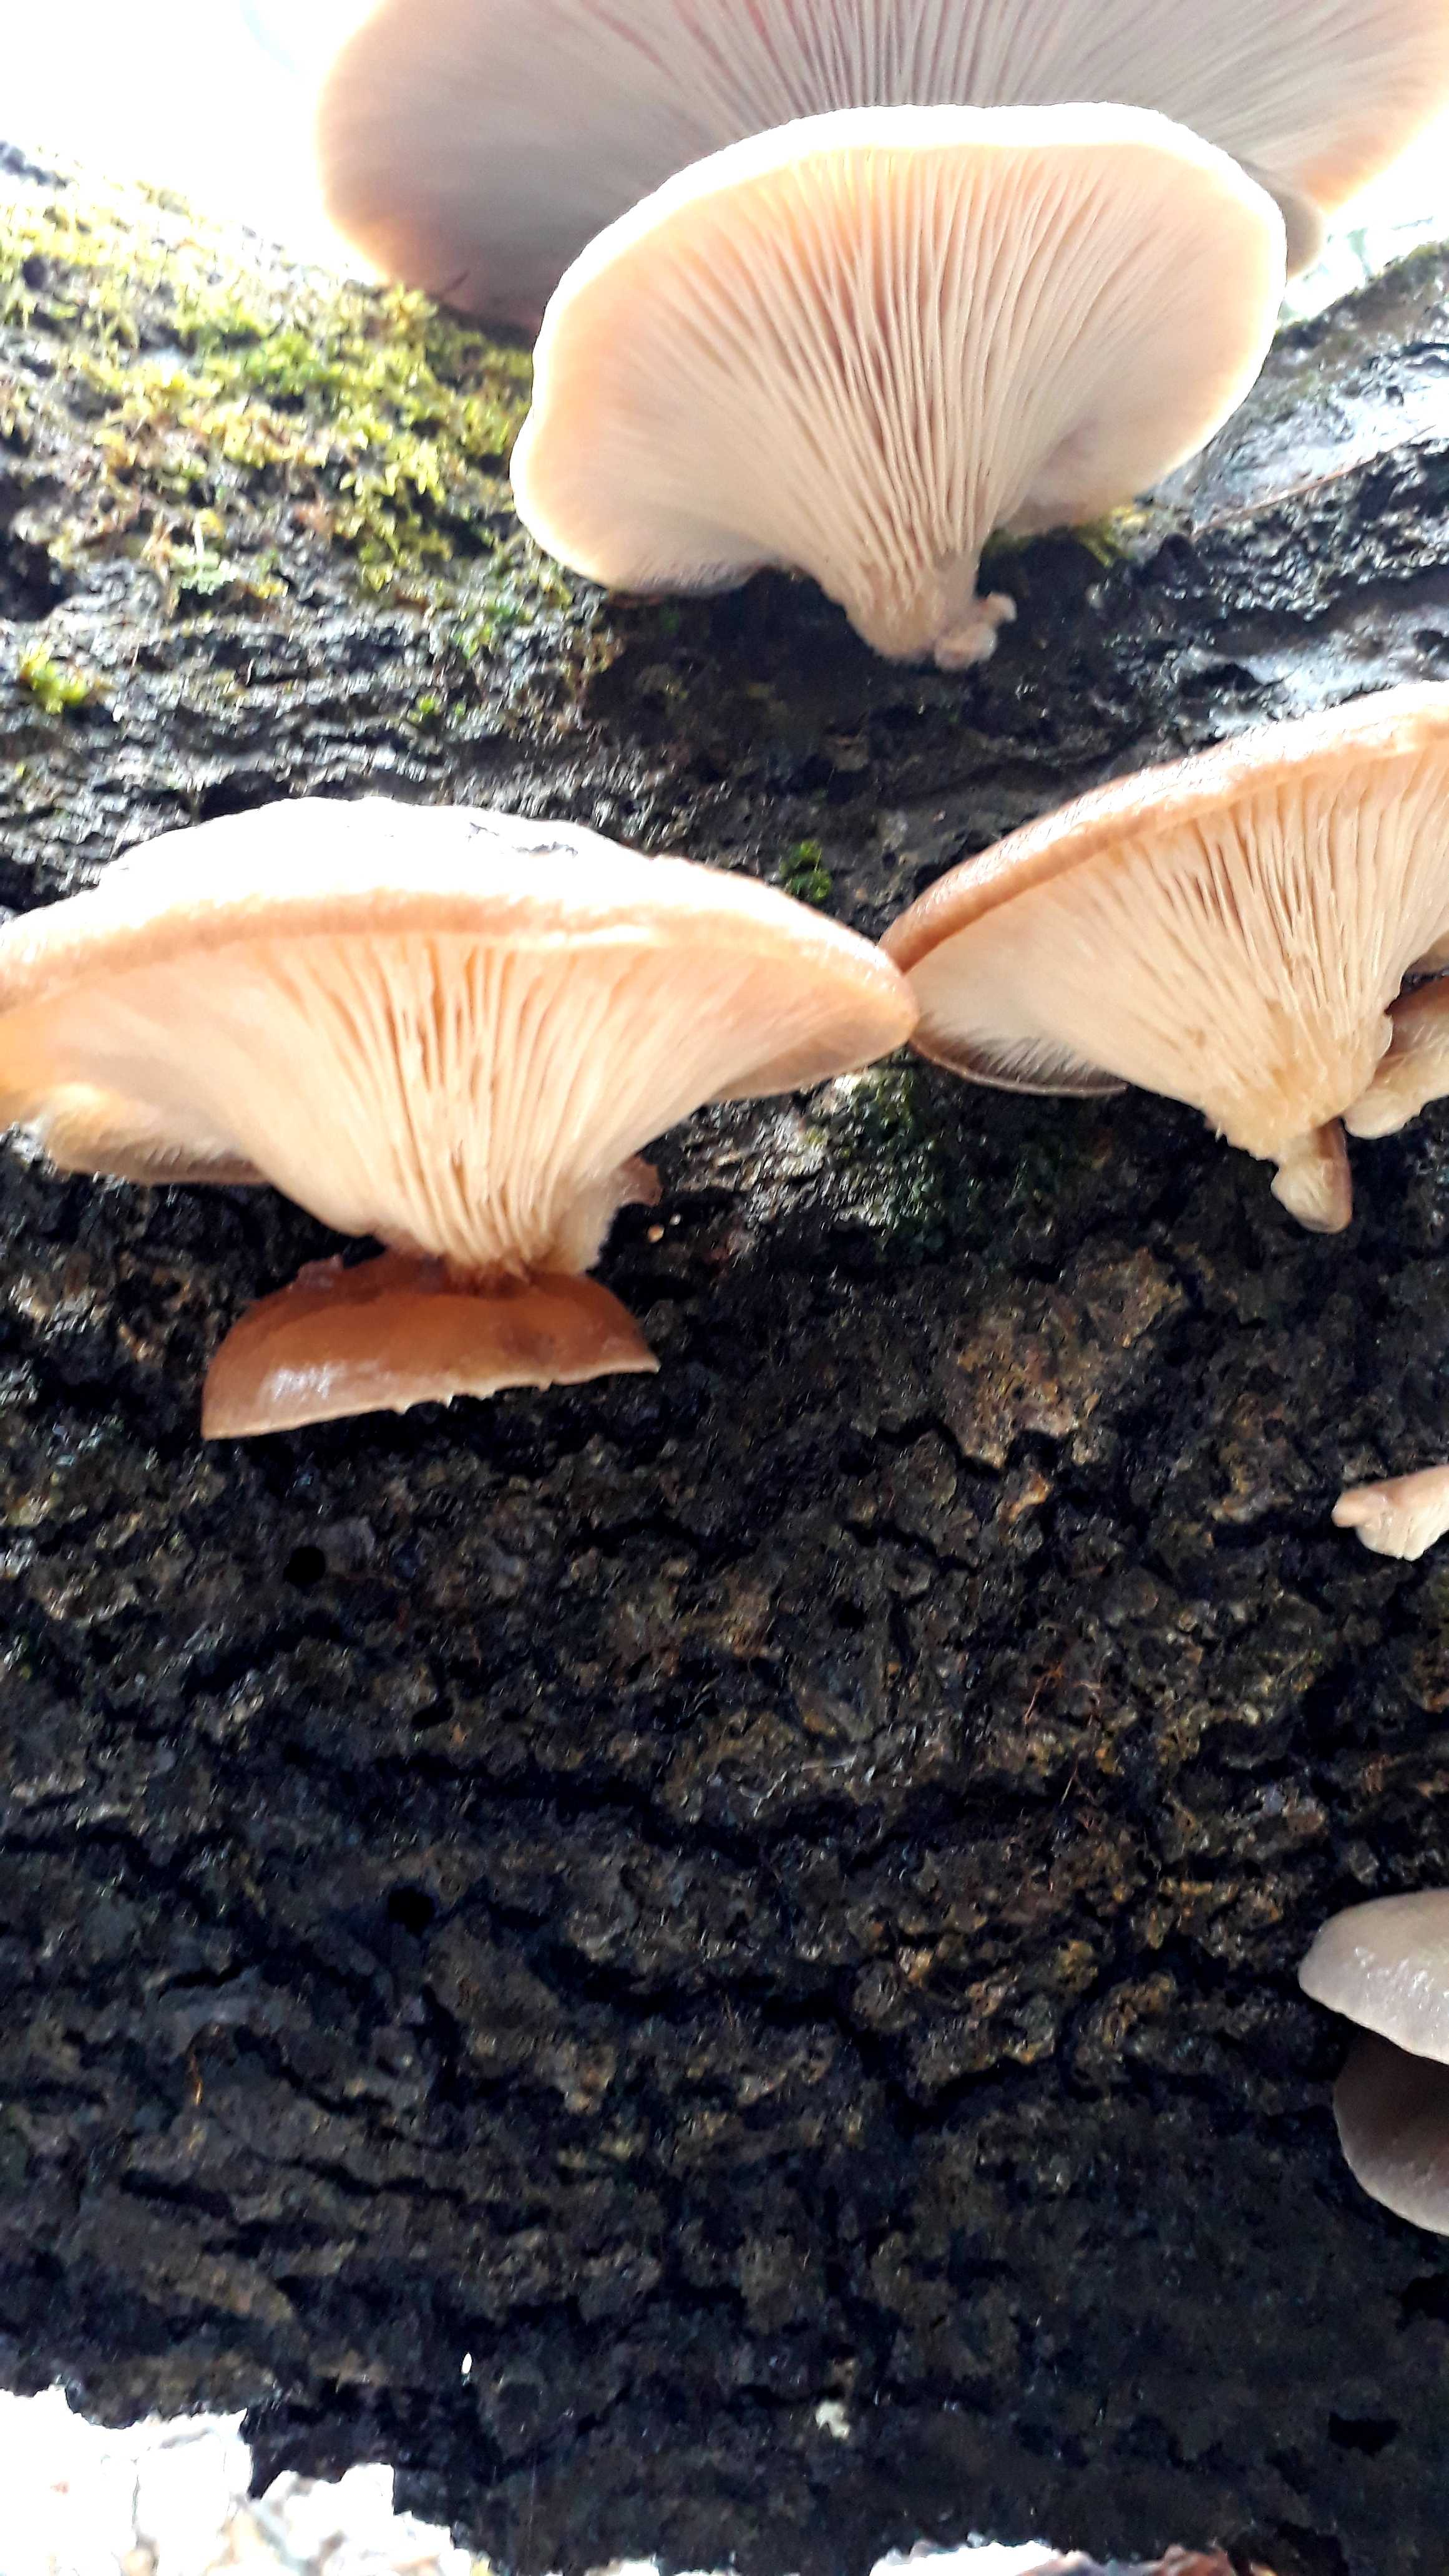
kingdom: Fungi
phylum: Basidiomycota
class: Agaricomycetes
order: Agaricales
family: Pleurotaceae
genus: Pleurotus
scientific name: Pleurotus ostreatus
